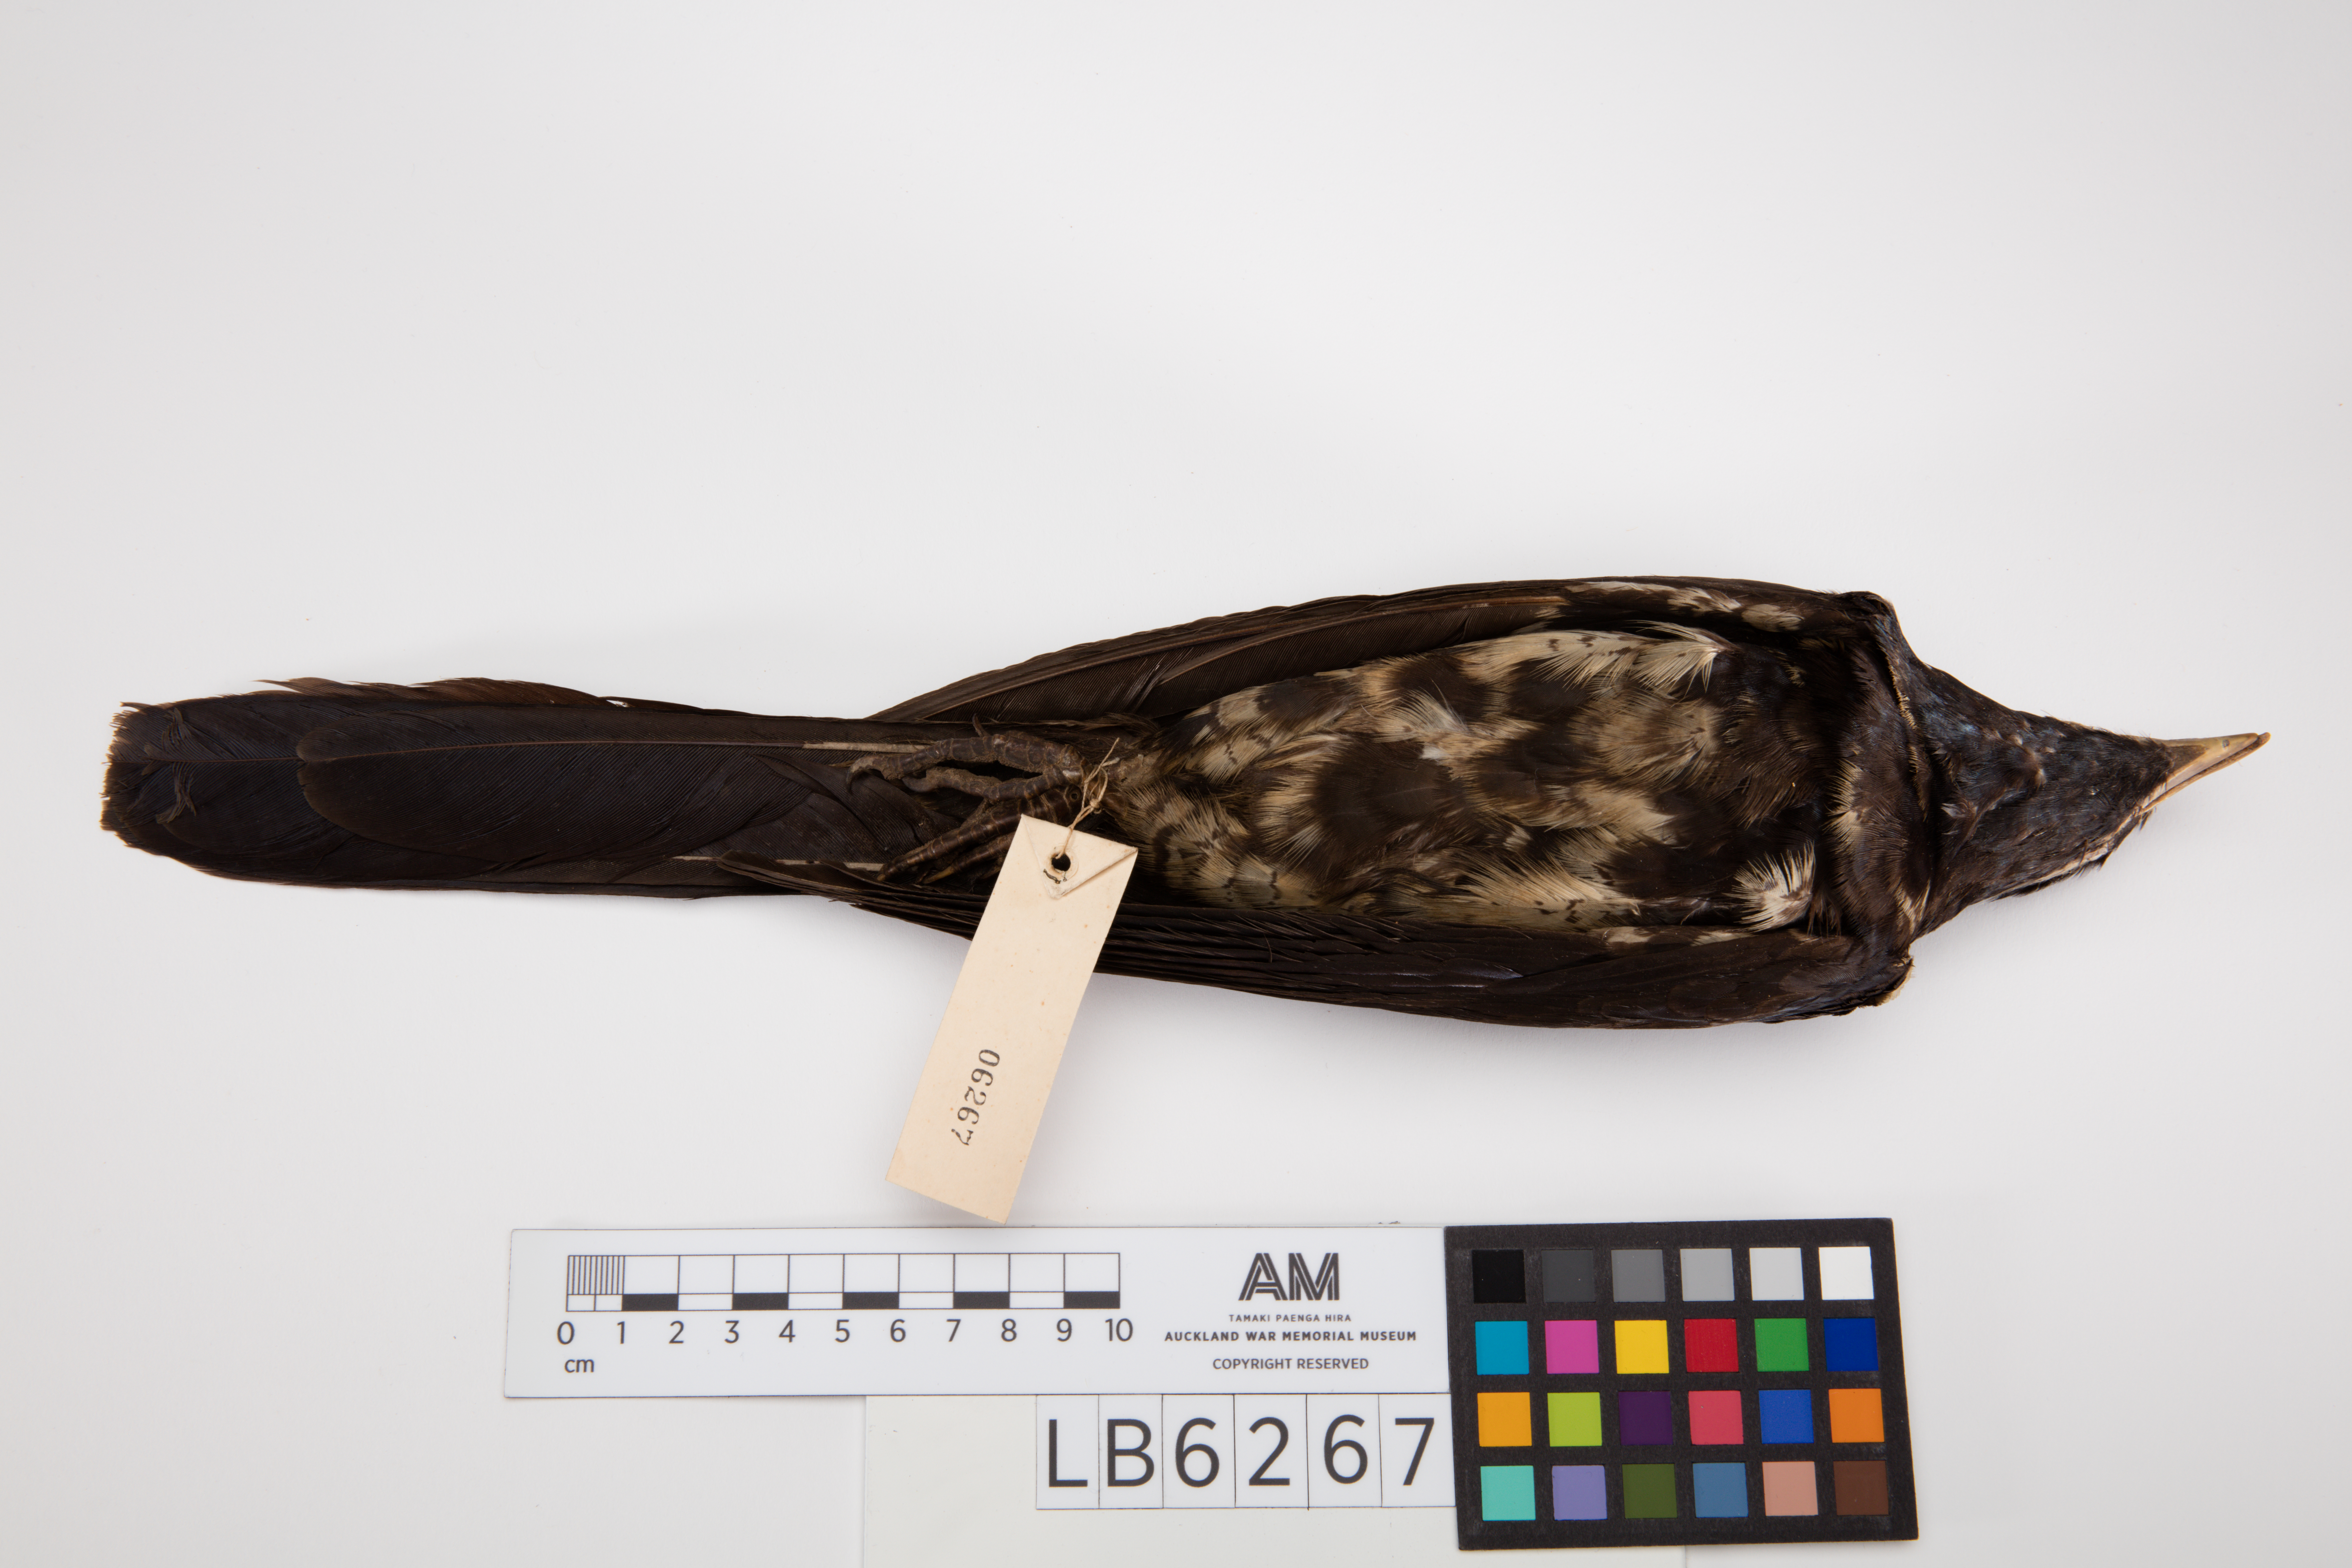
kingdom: Animalia
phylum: Chordata
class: Aves
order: Cuculiformes
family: Cuculidae
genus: Eudynamys
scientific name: Eudynamys scolopaceus
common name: Asian koel
